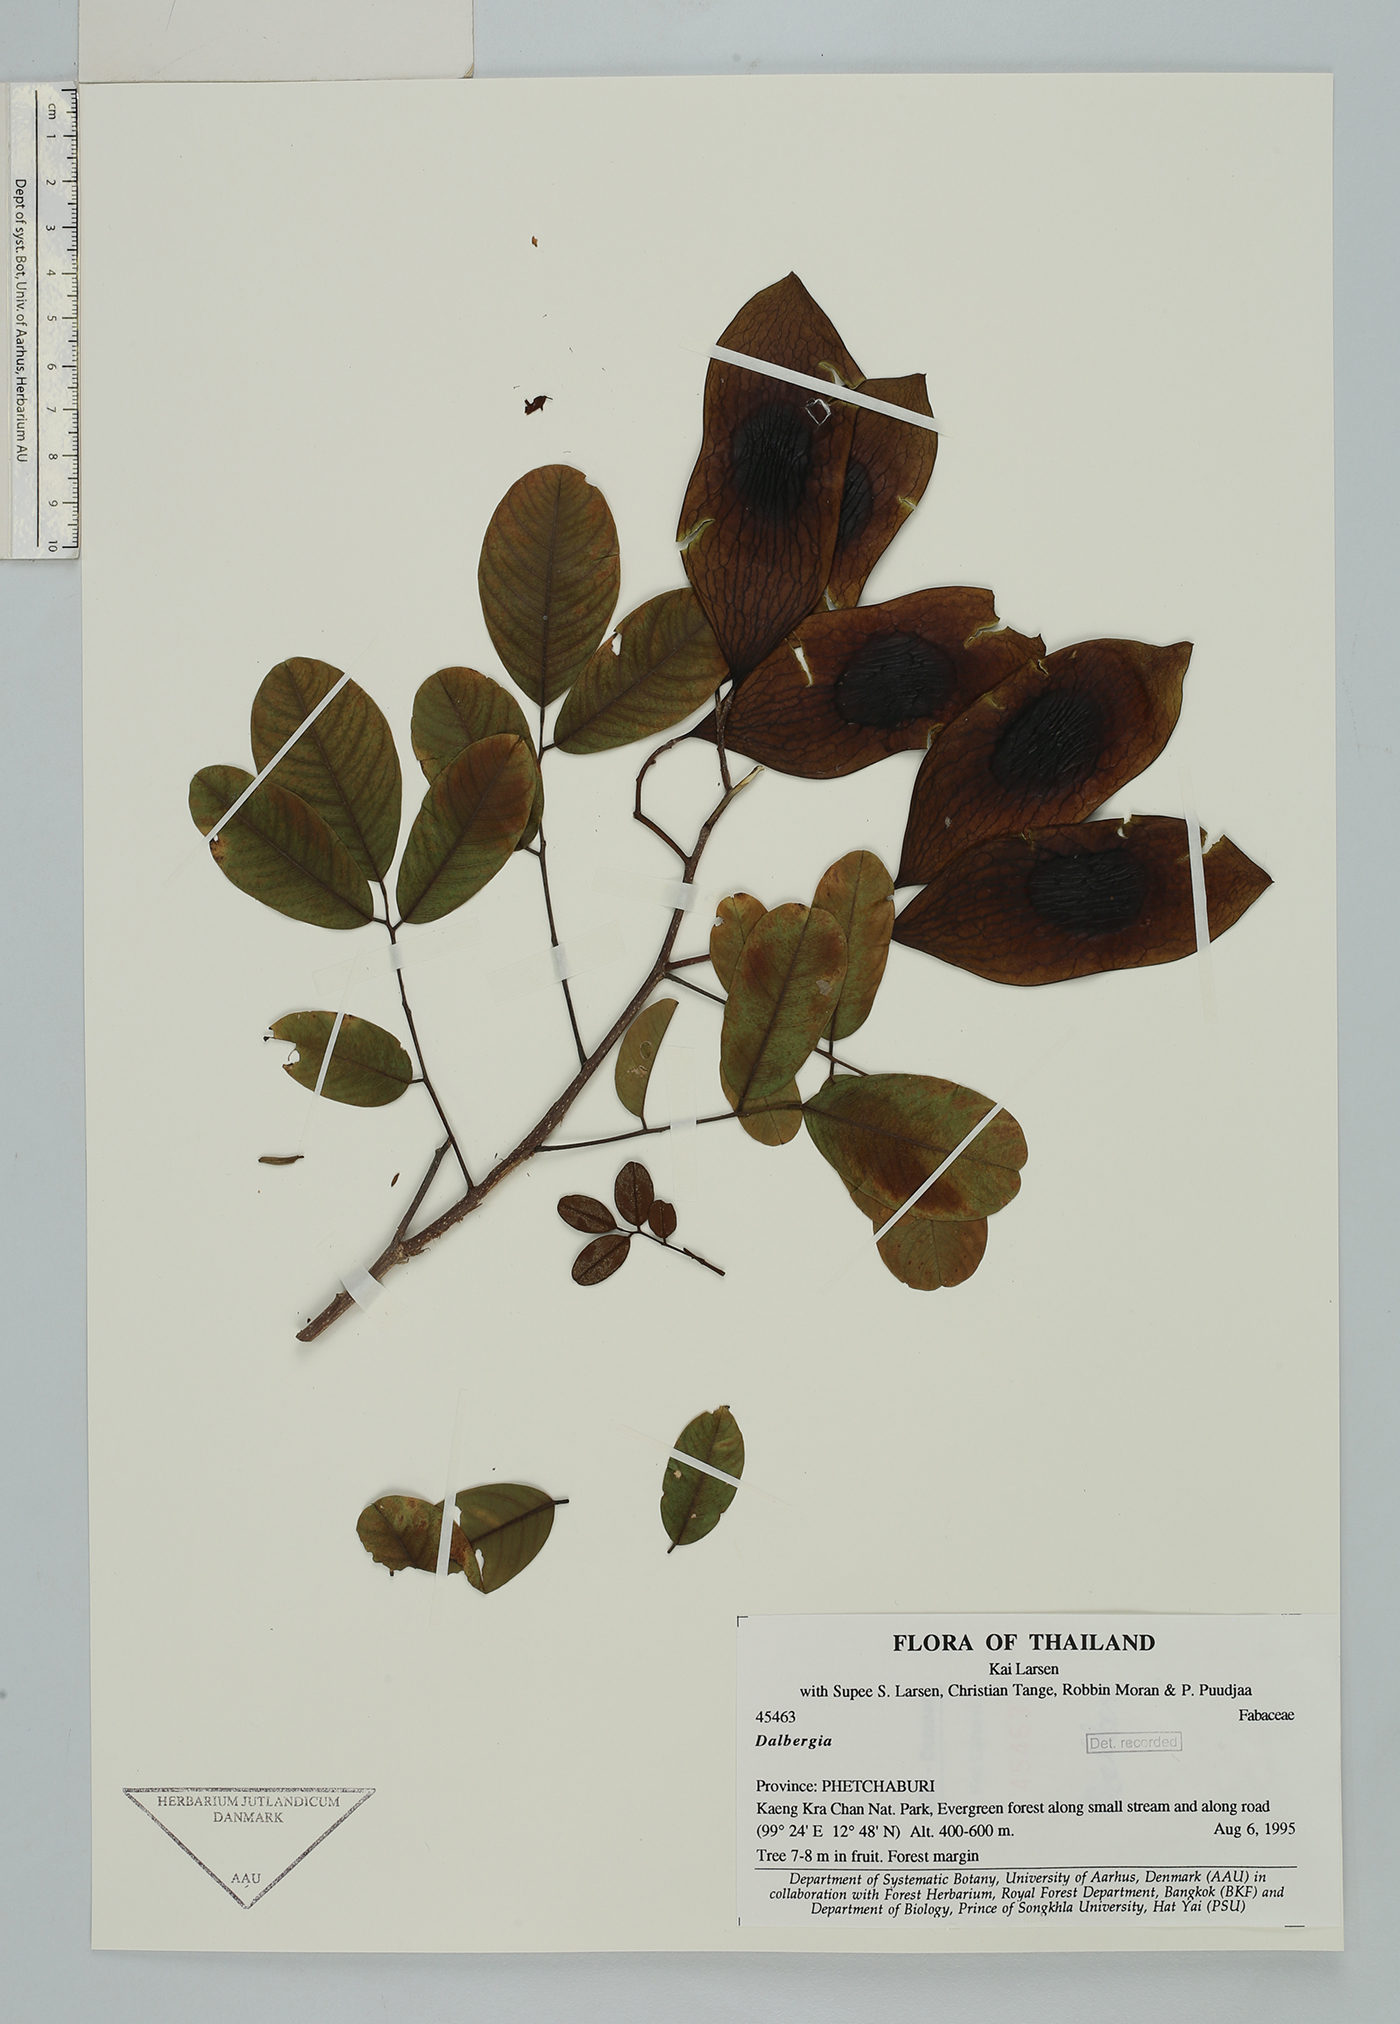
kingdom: Plantae
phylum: Tracheophyta
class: Magnoliopsida
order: Fabales
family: Fabaceae
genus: Dalbergia
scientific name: Dalbergia
